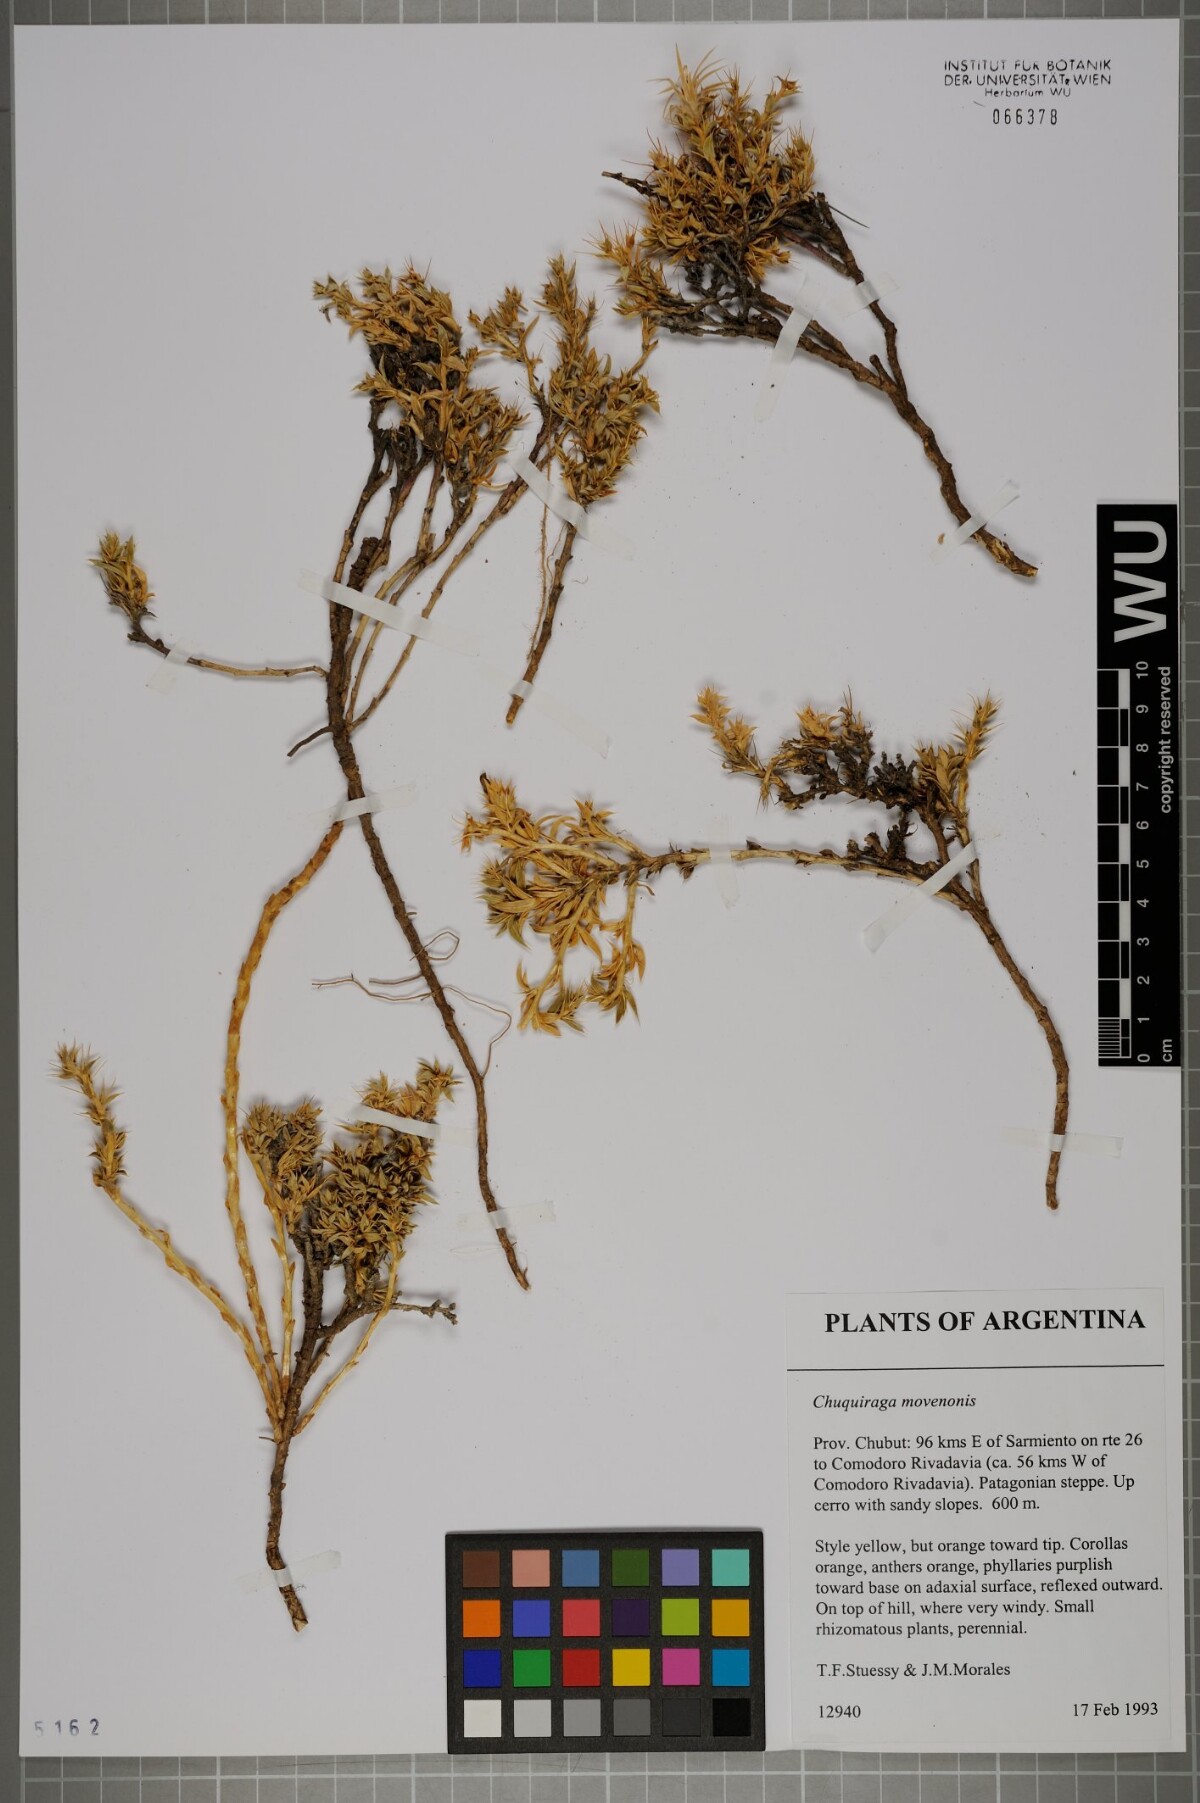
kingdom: Plantae
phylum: Tracheophyta
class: Magnoliopsida
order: Asterales
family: Asteraceae
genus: Chuquiraga
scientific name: Chuquiraga morenonis
